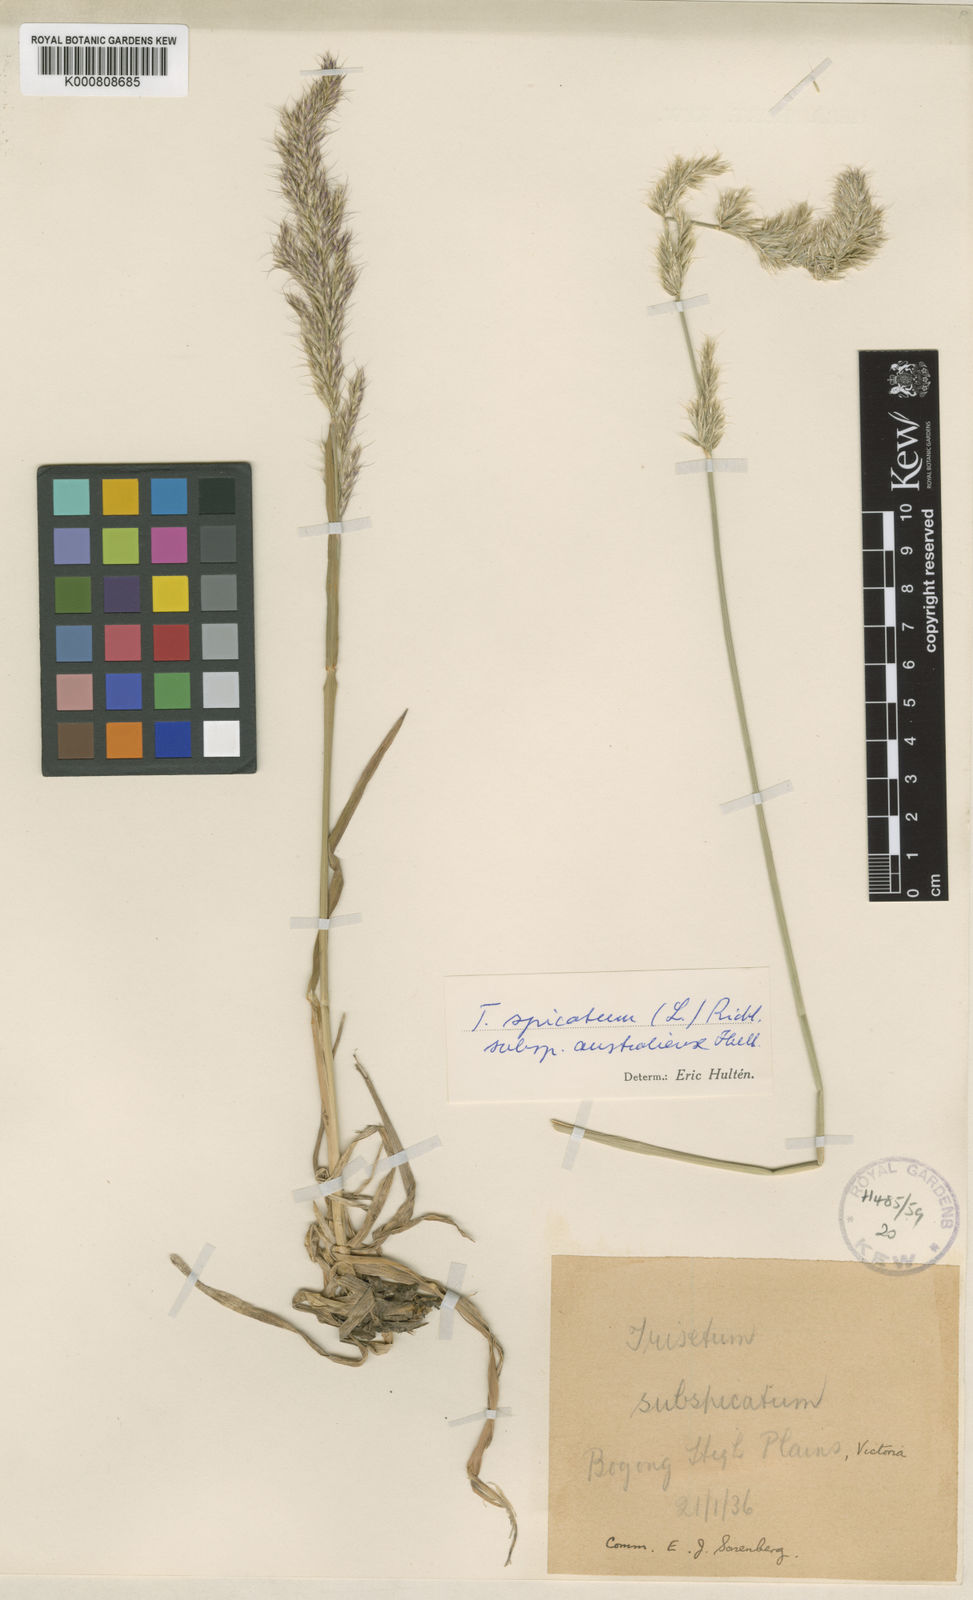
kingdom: Plantae
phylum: Tracheophyta
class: Liliopsida
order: Poales
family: Poaceae
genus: Koeleria
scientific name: Koeleria spicata
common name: Mountain trisetum
